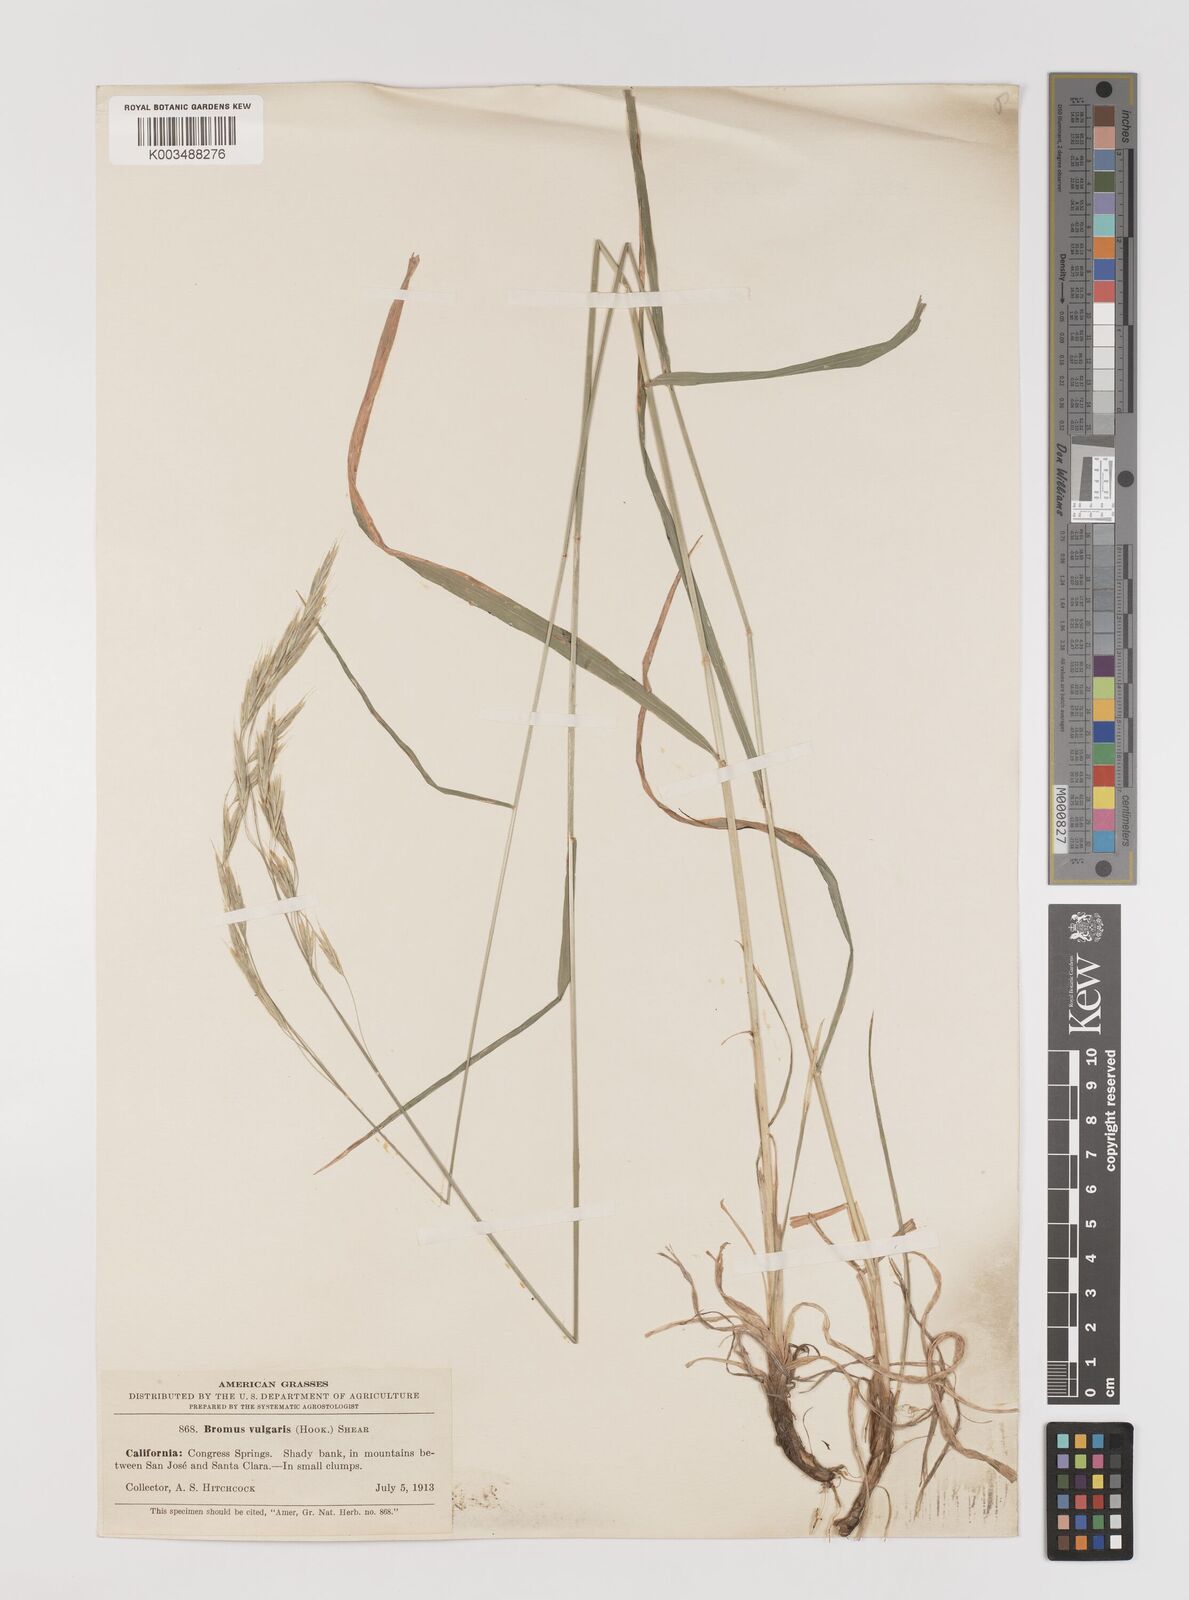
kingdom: Plantae
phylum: Tracheophyta
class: Liliopsida
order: Poales
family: Poaceae
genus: Bromus
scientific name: Bromus vulgaris
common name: Columbia brome
